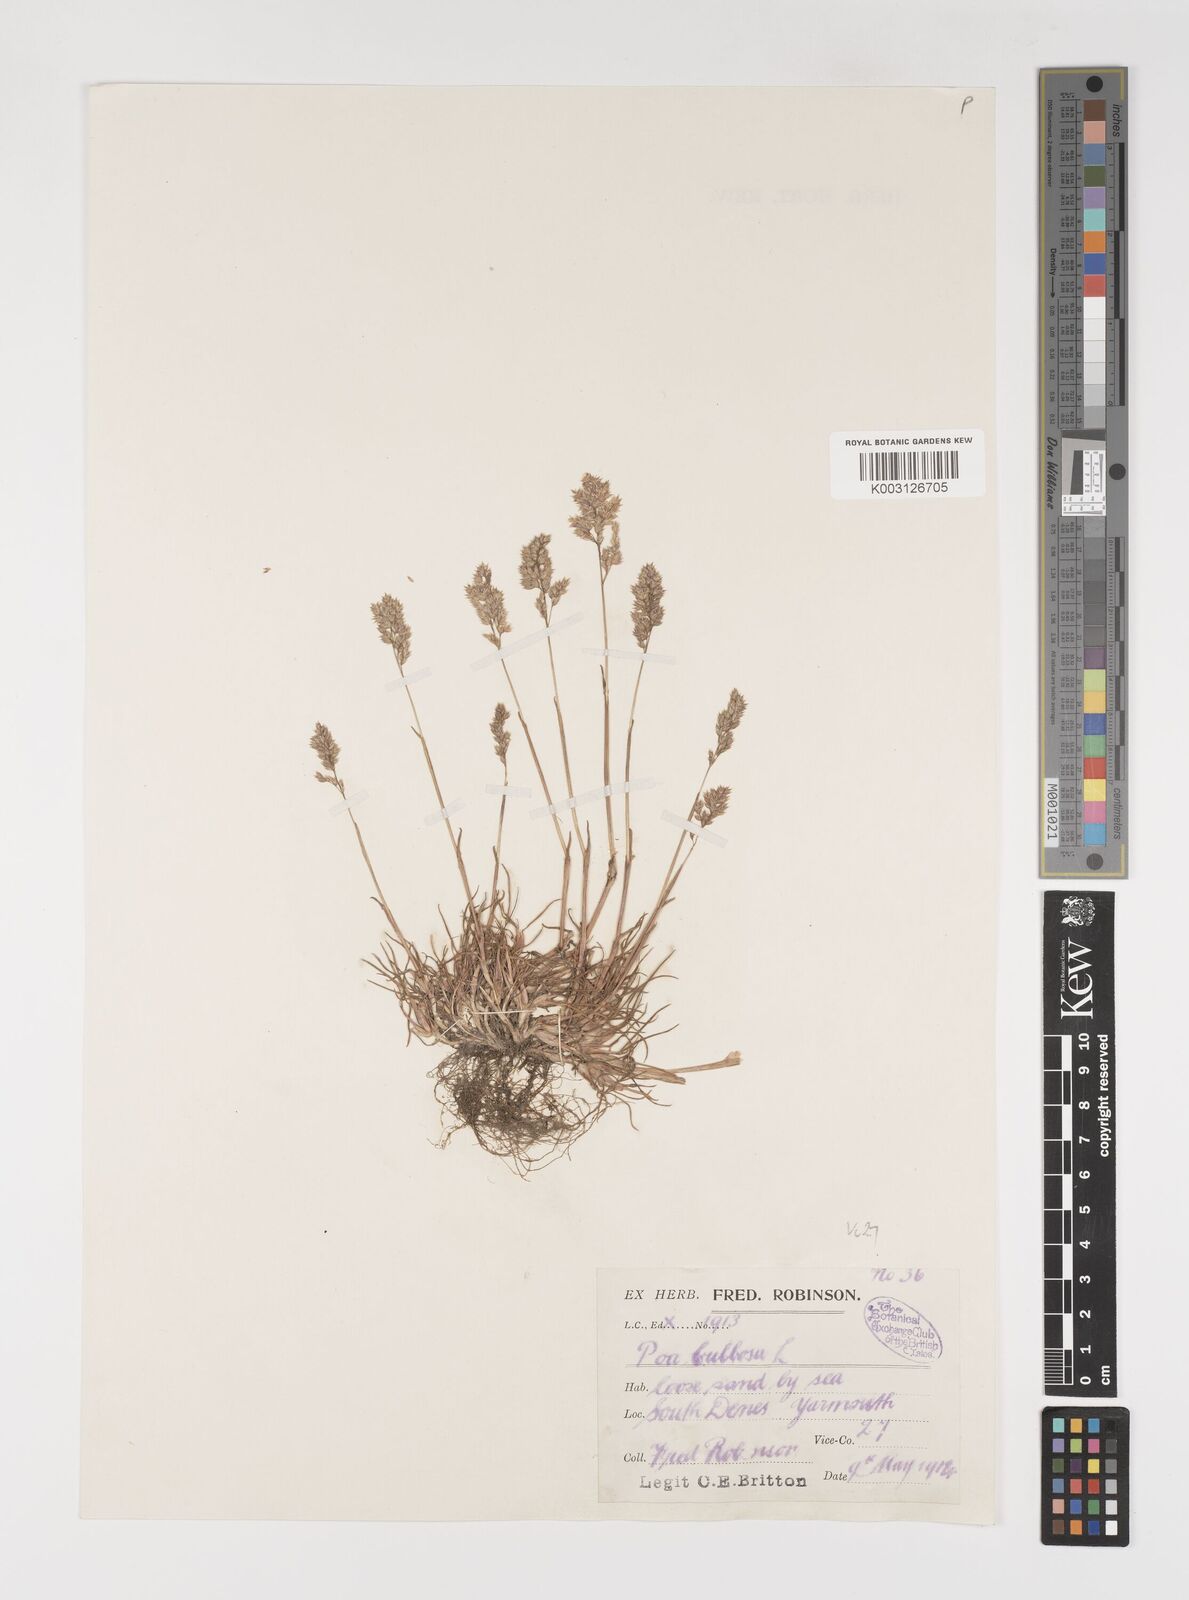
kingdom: Plantae
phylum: Tracheophyta
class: Liliopsida
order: Poales
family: Poaceae
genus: Poa
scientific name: Poa bulbosa
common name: Bulbous bluegrass
